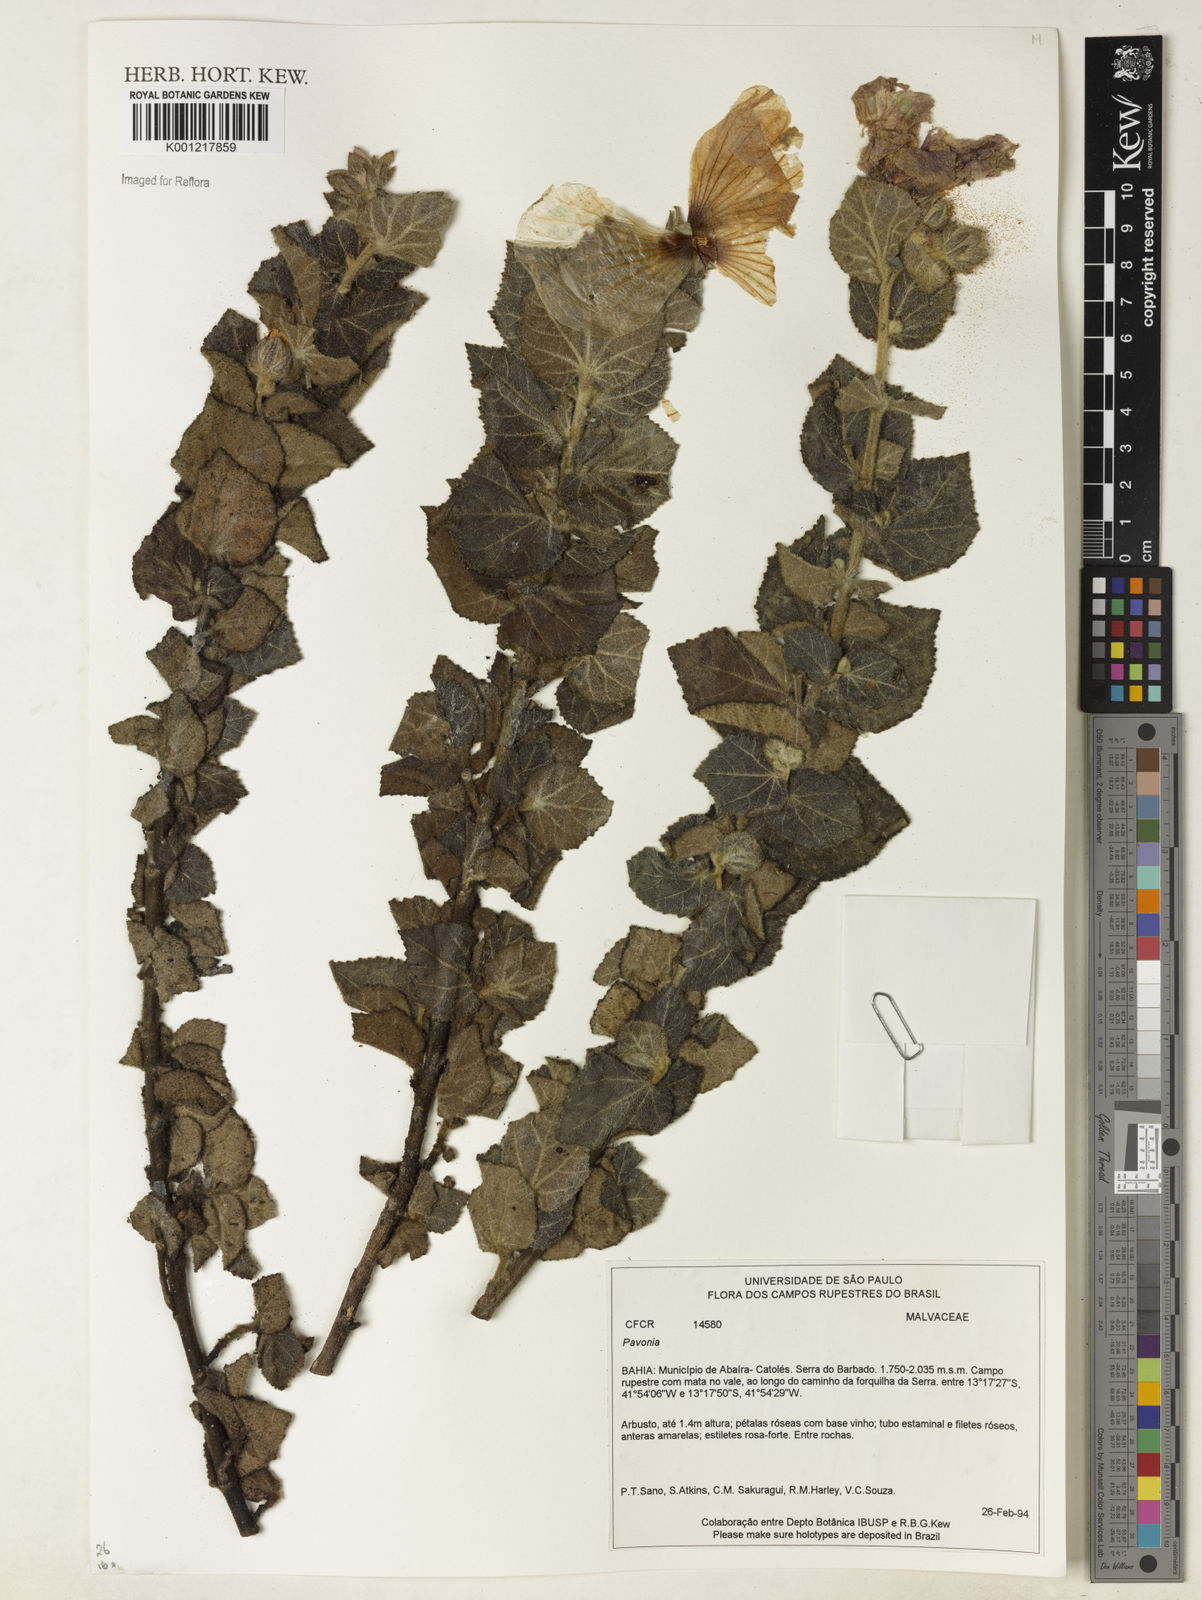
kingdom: Plantae
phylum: Tracheophyta
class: Magnoliopsida
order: Malvales
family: Malvaceae
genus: Pavonia
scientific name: Pavonia
